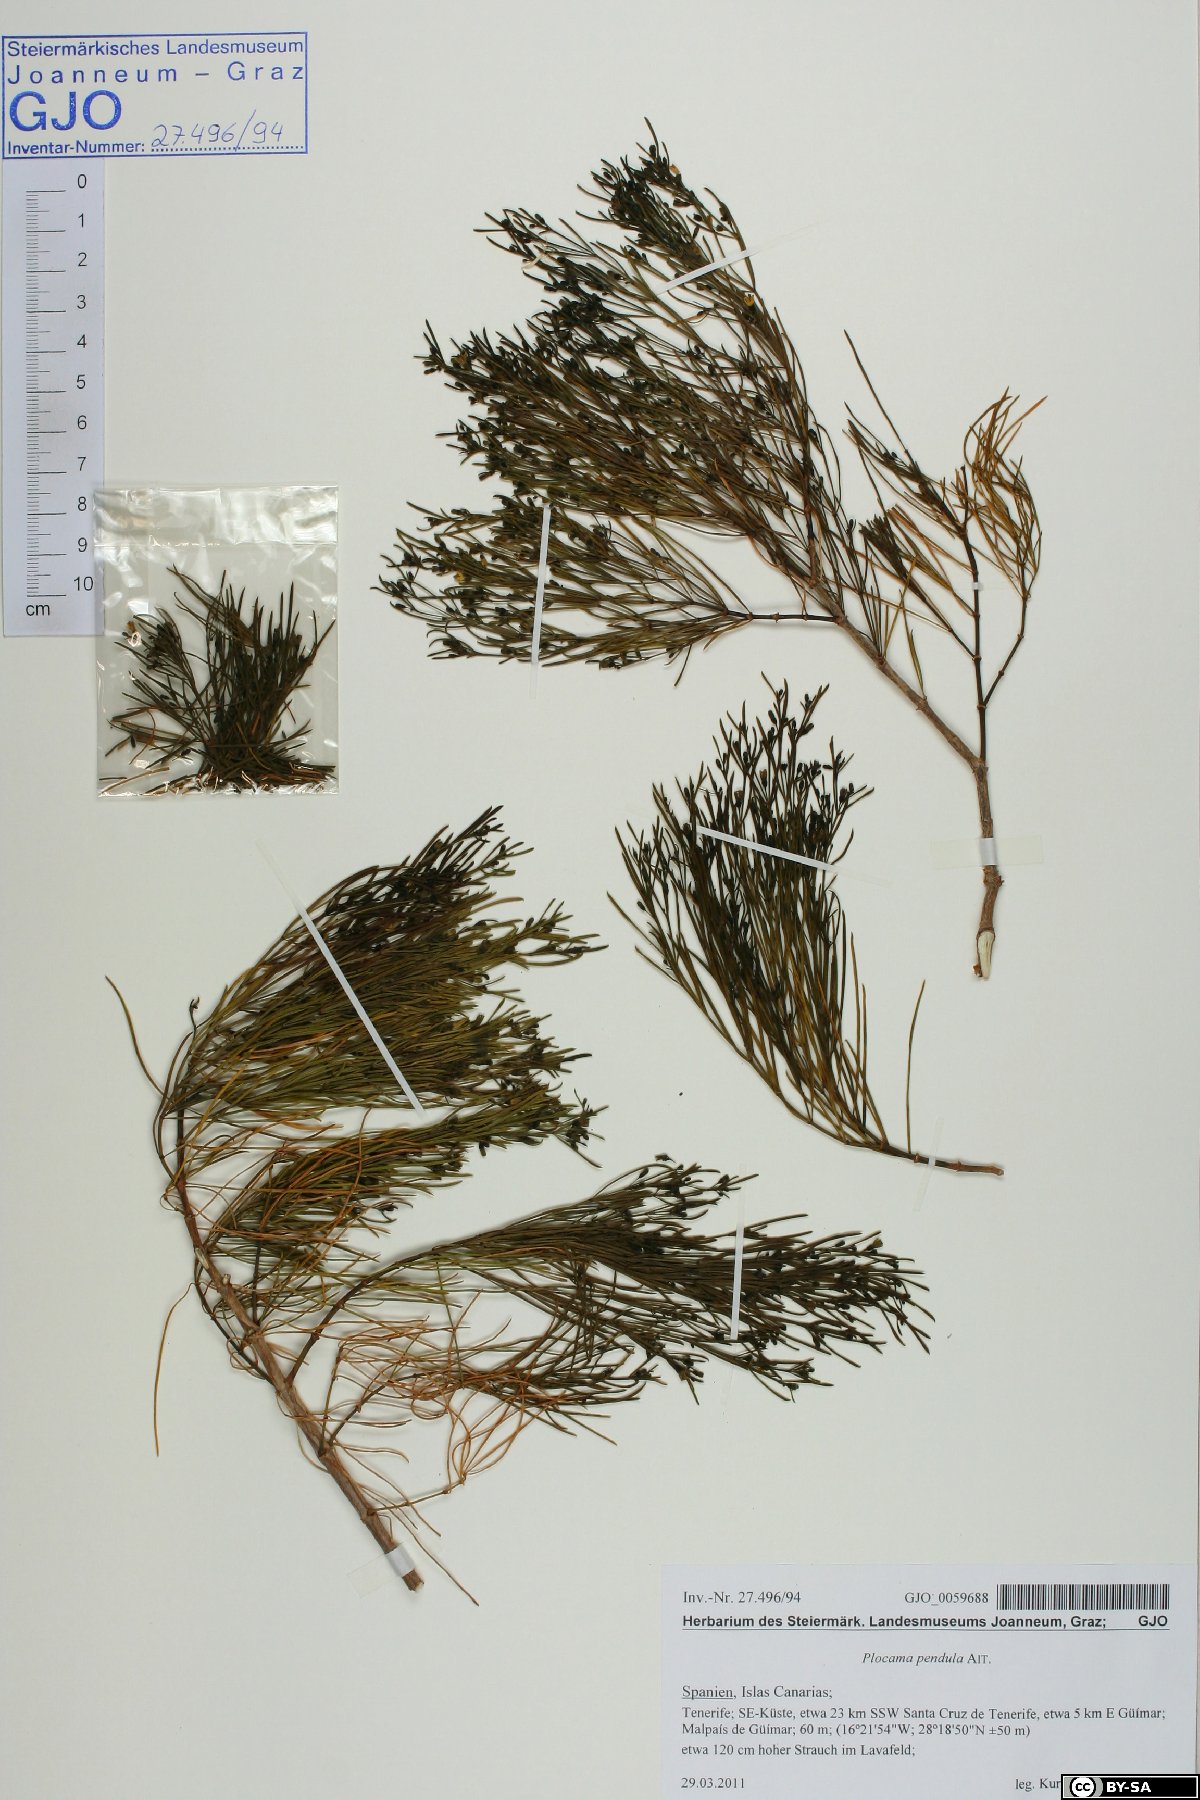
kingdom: Plantae
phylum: Tracheophyta
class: Magnoliopsida
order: Gentianales
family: Rubiaceae
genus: Plocama
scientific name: Plocama pendula
